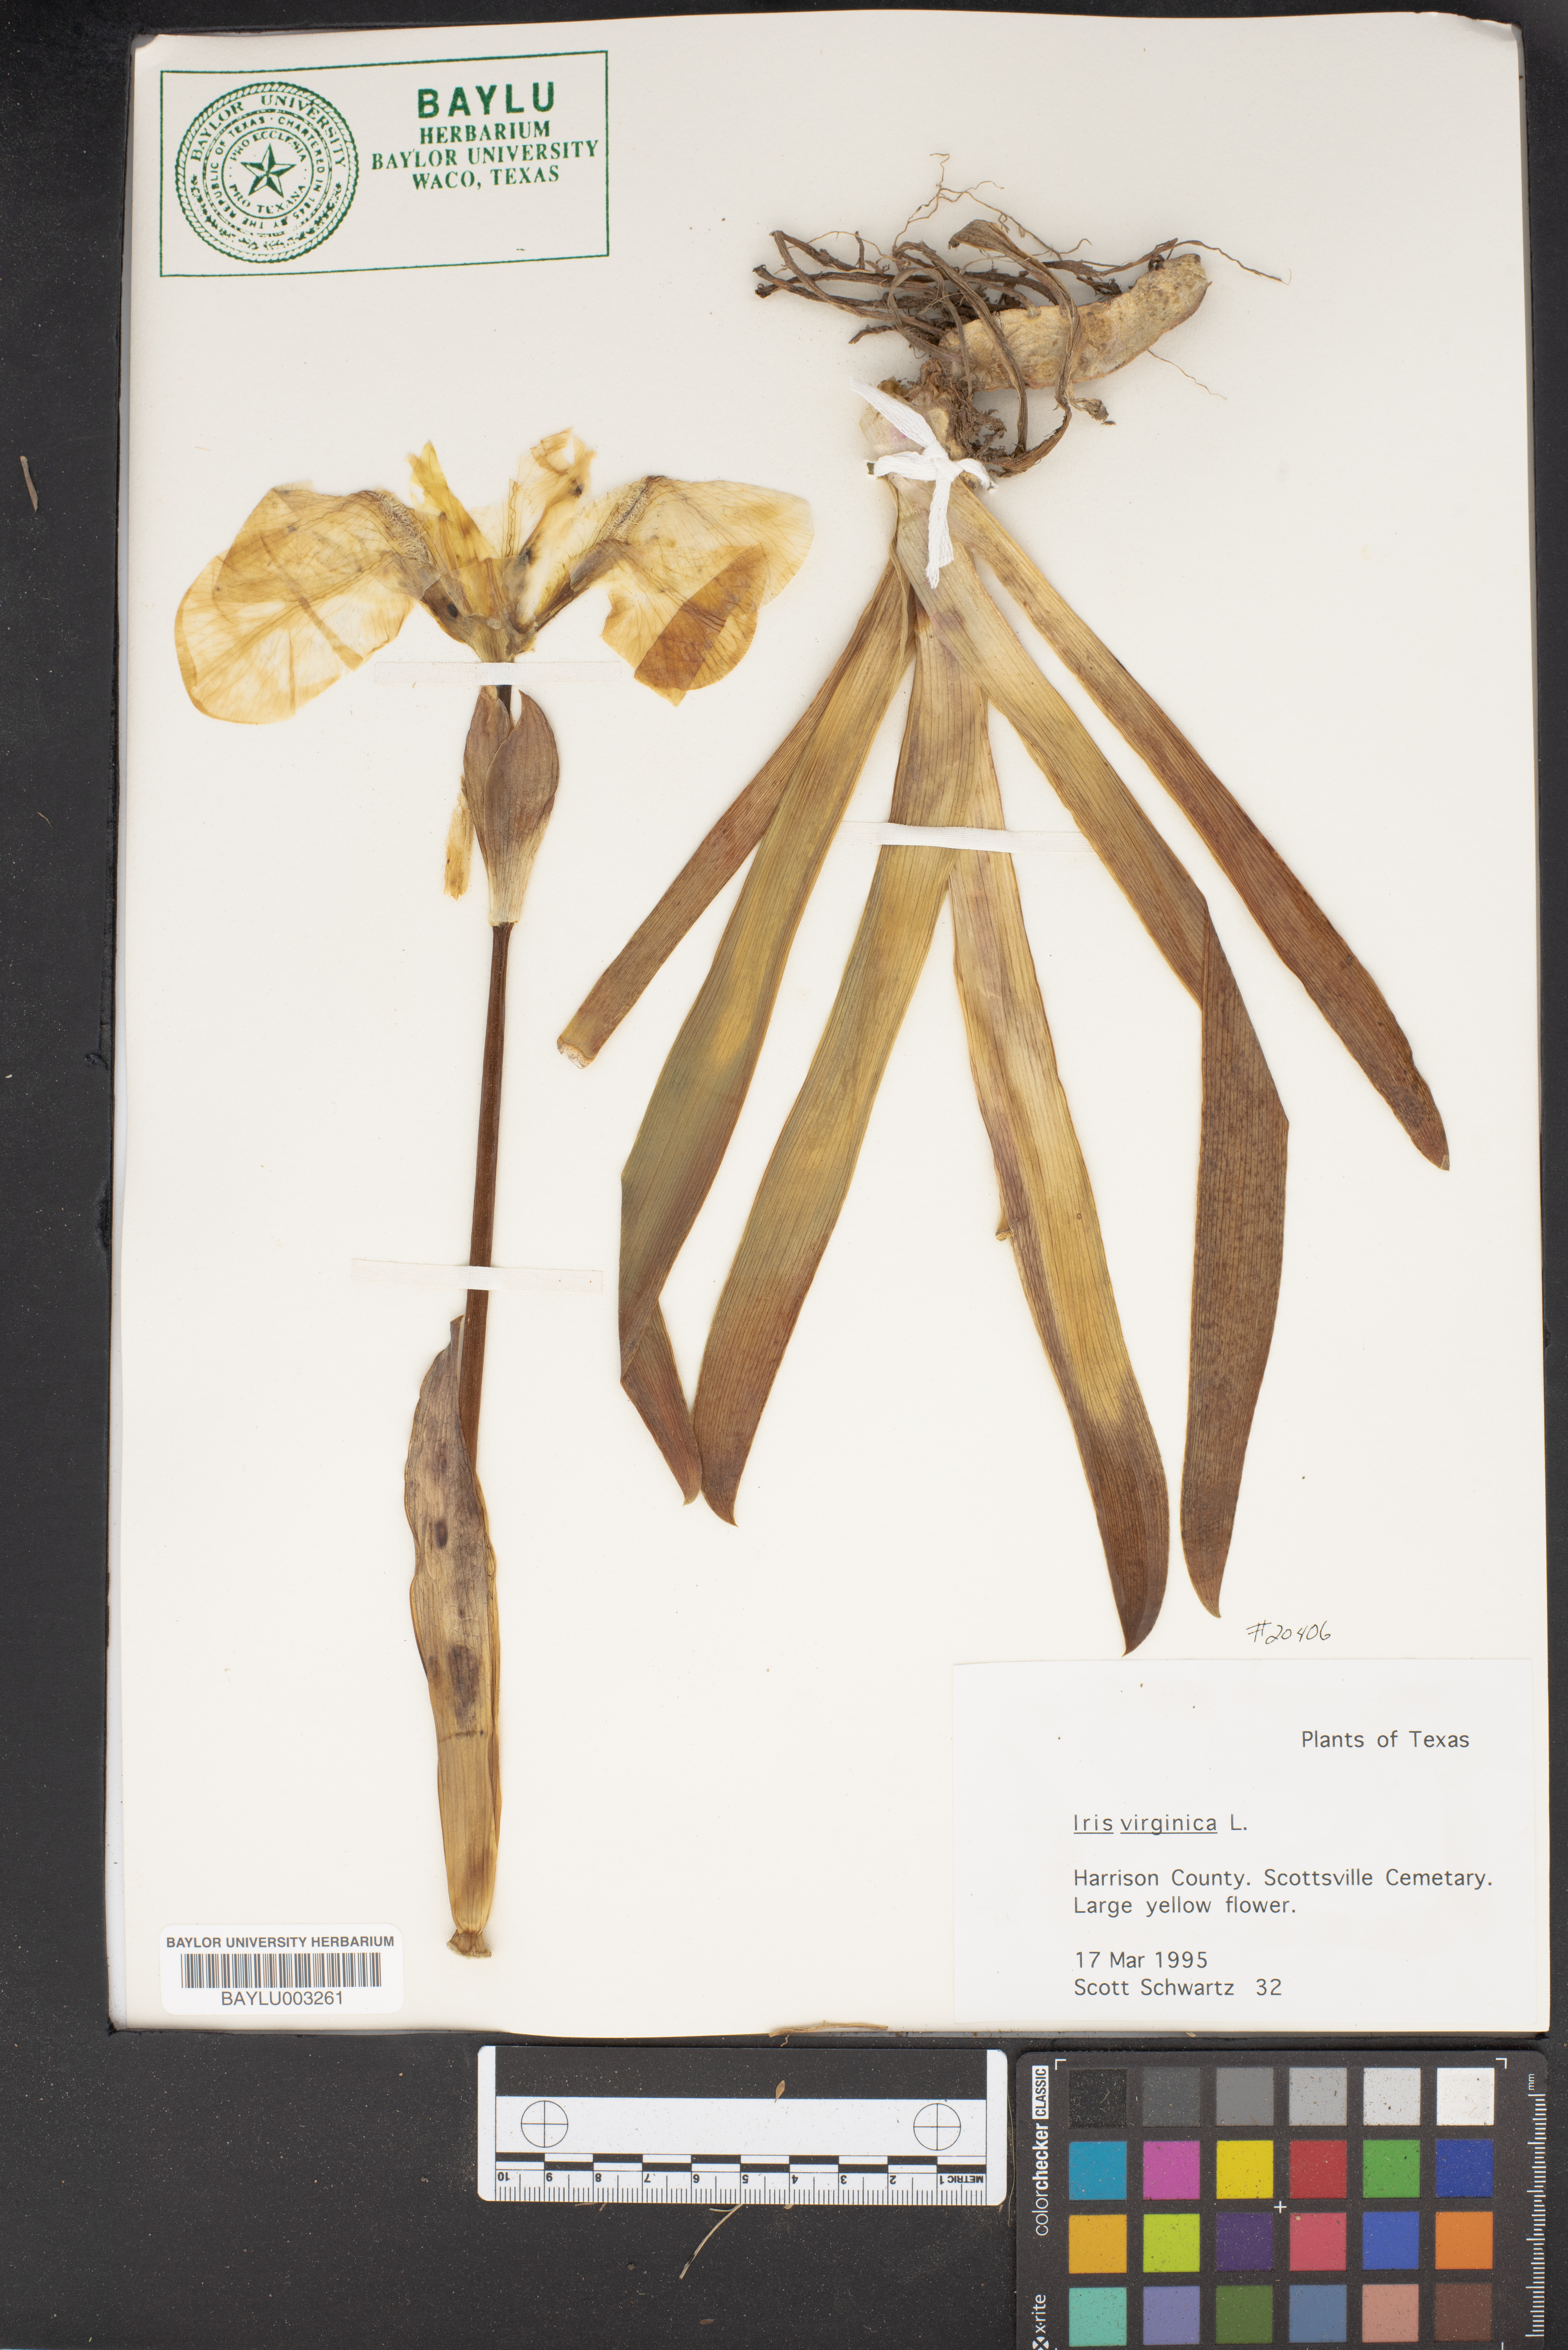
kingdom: Plantae
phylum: Tracheophyta
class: Liliopsida
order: Asparagales
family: Iridaceae
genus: Iris
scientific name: Iris virginica
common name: Southern blue flag
